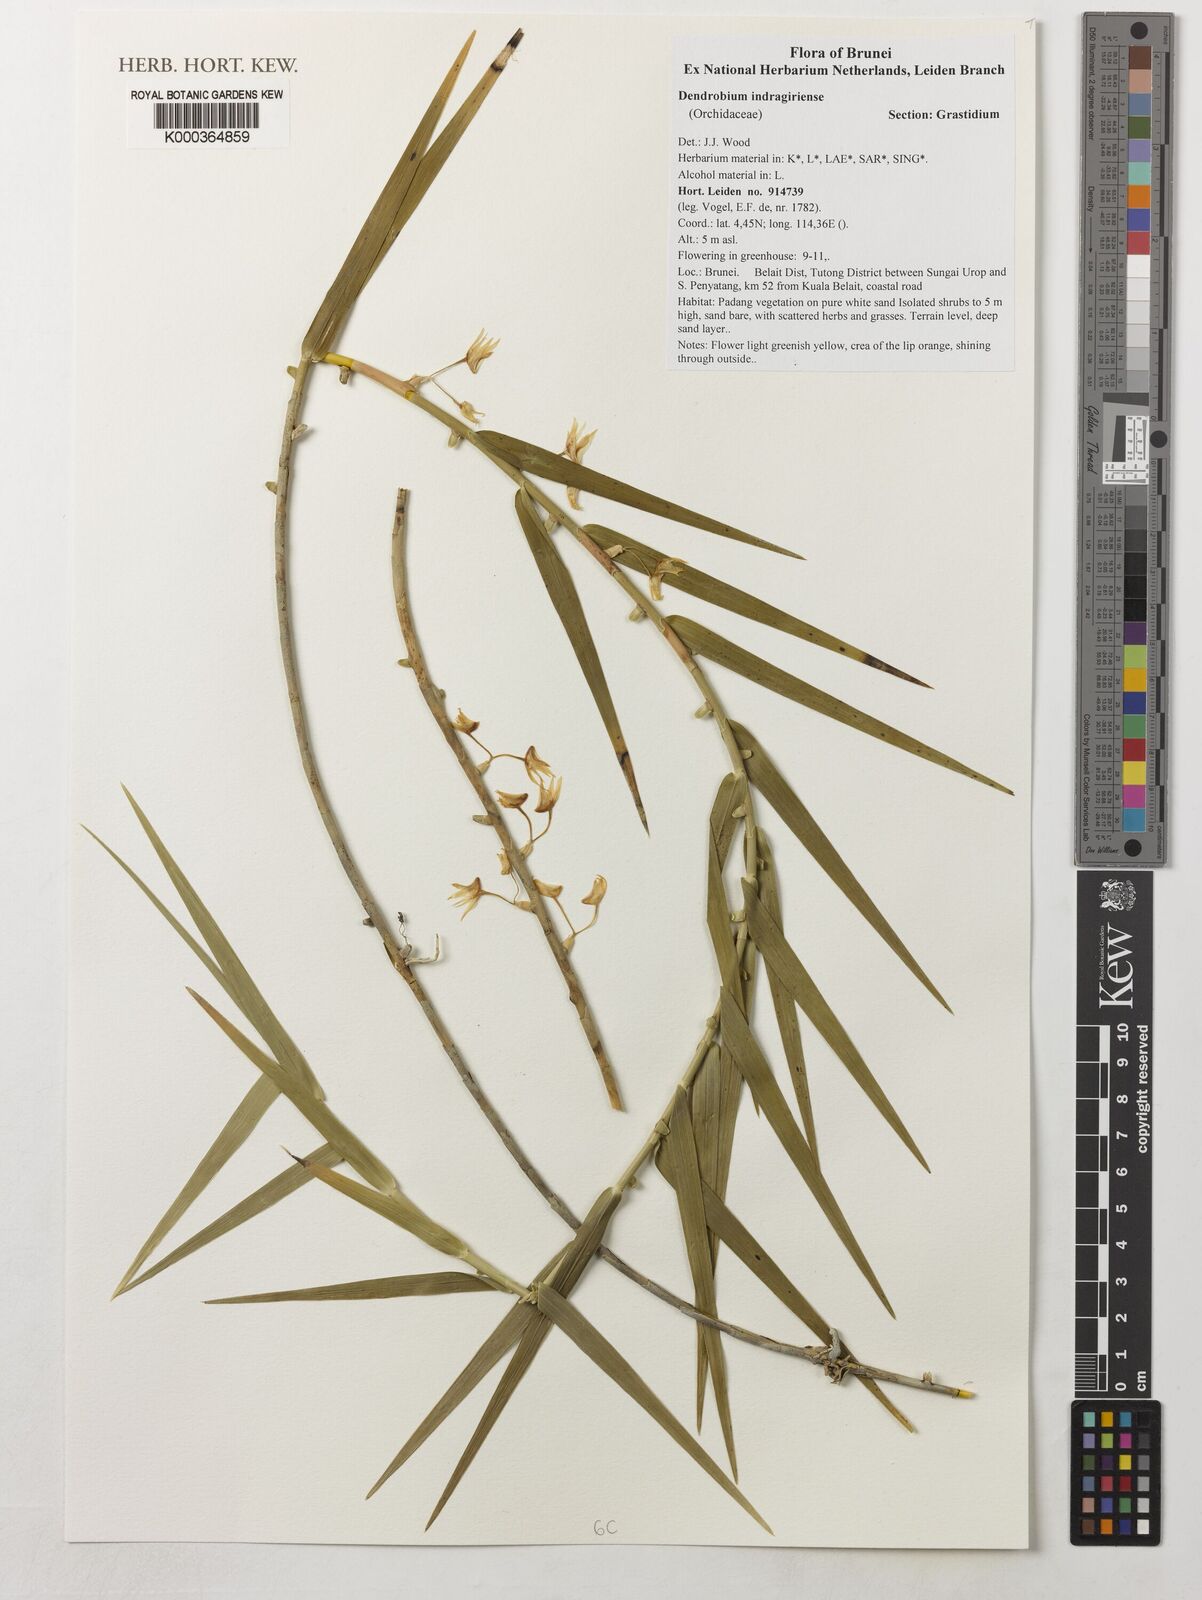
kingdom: Plantae
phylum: Tracheophyta
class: Liliopsida
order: Asparagales
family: Orchidaceae
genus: Dendrobium
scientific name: Dendrobium indragiriense
